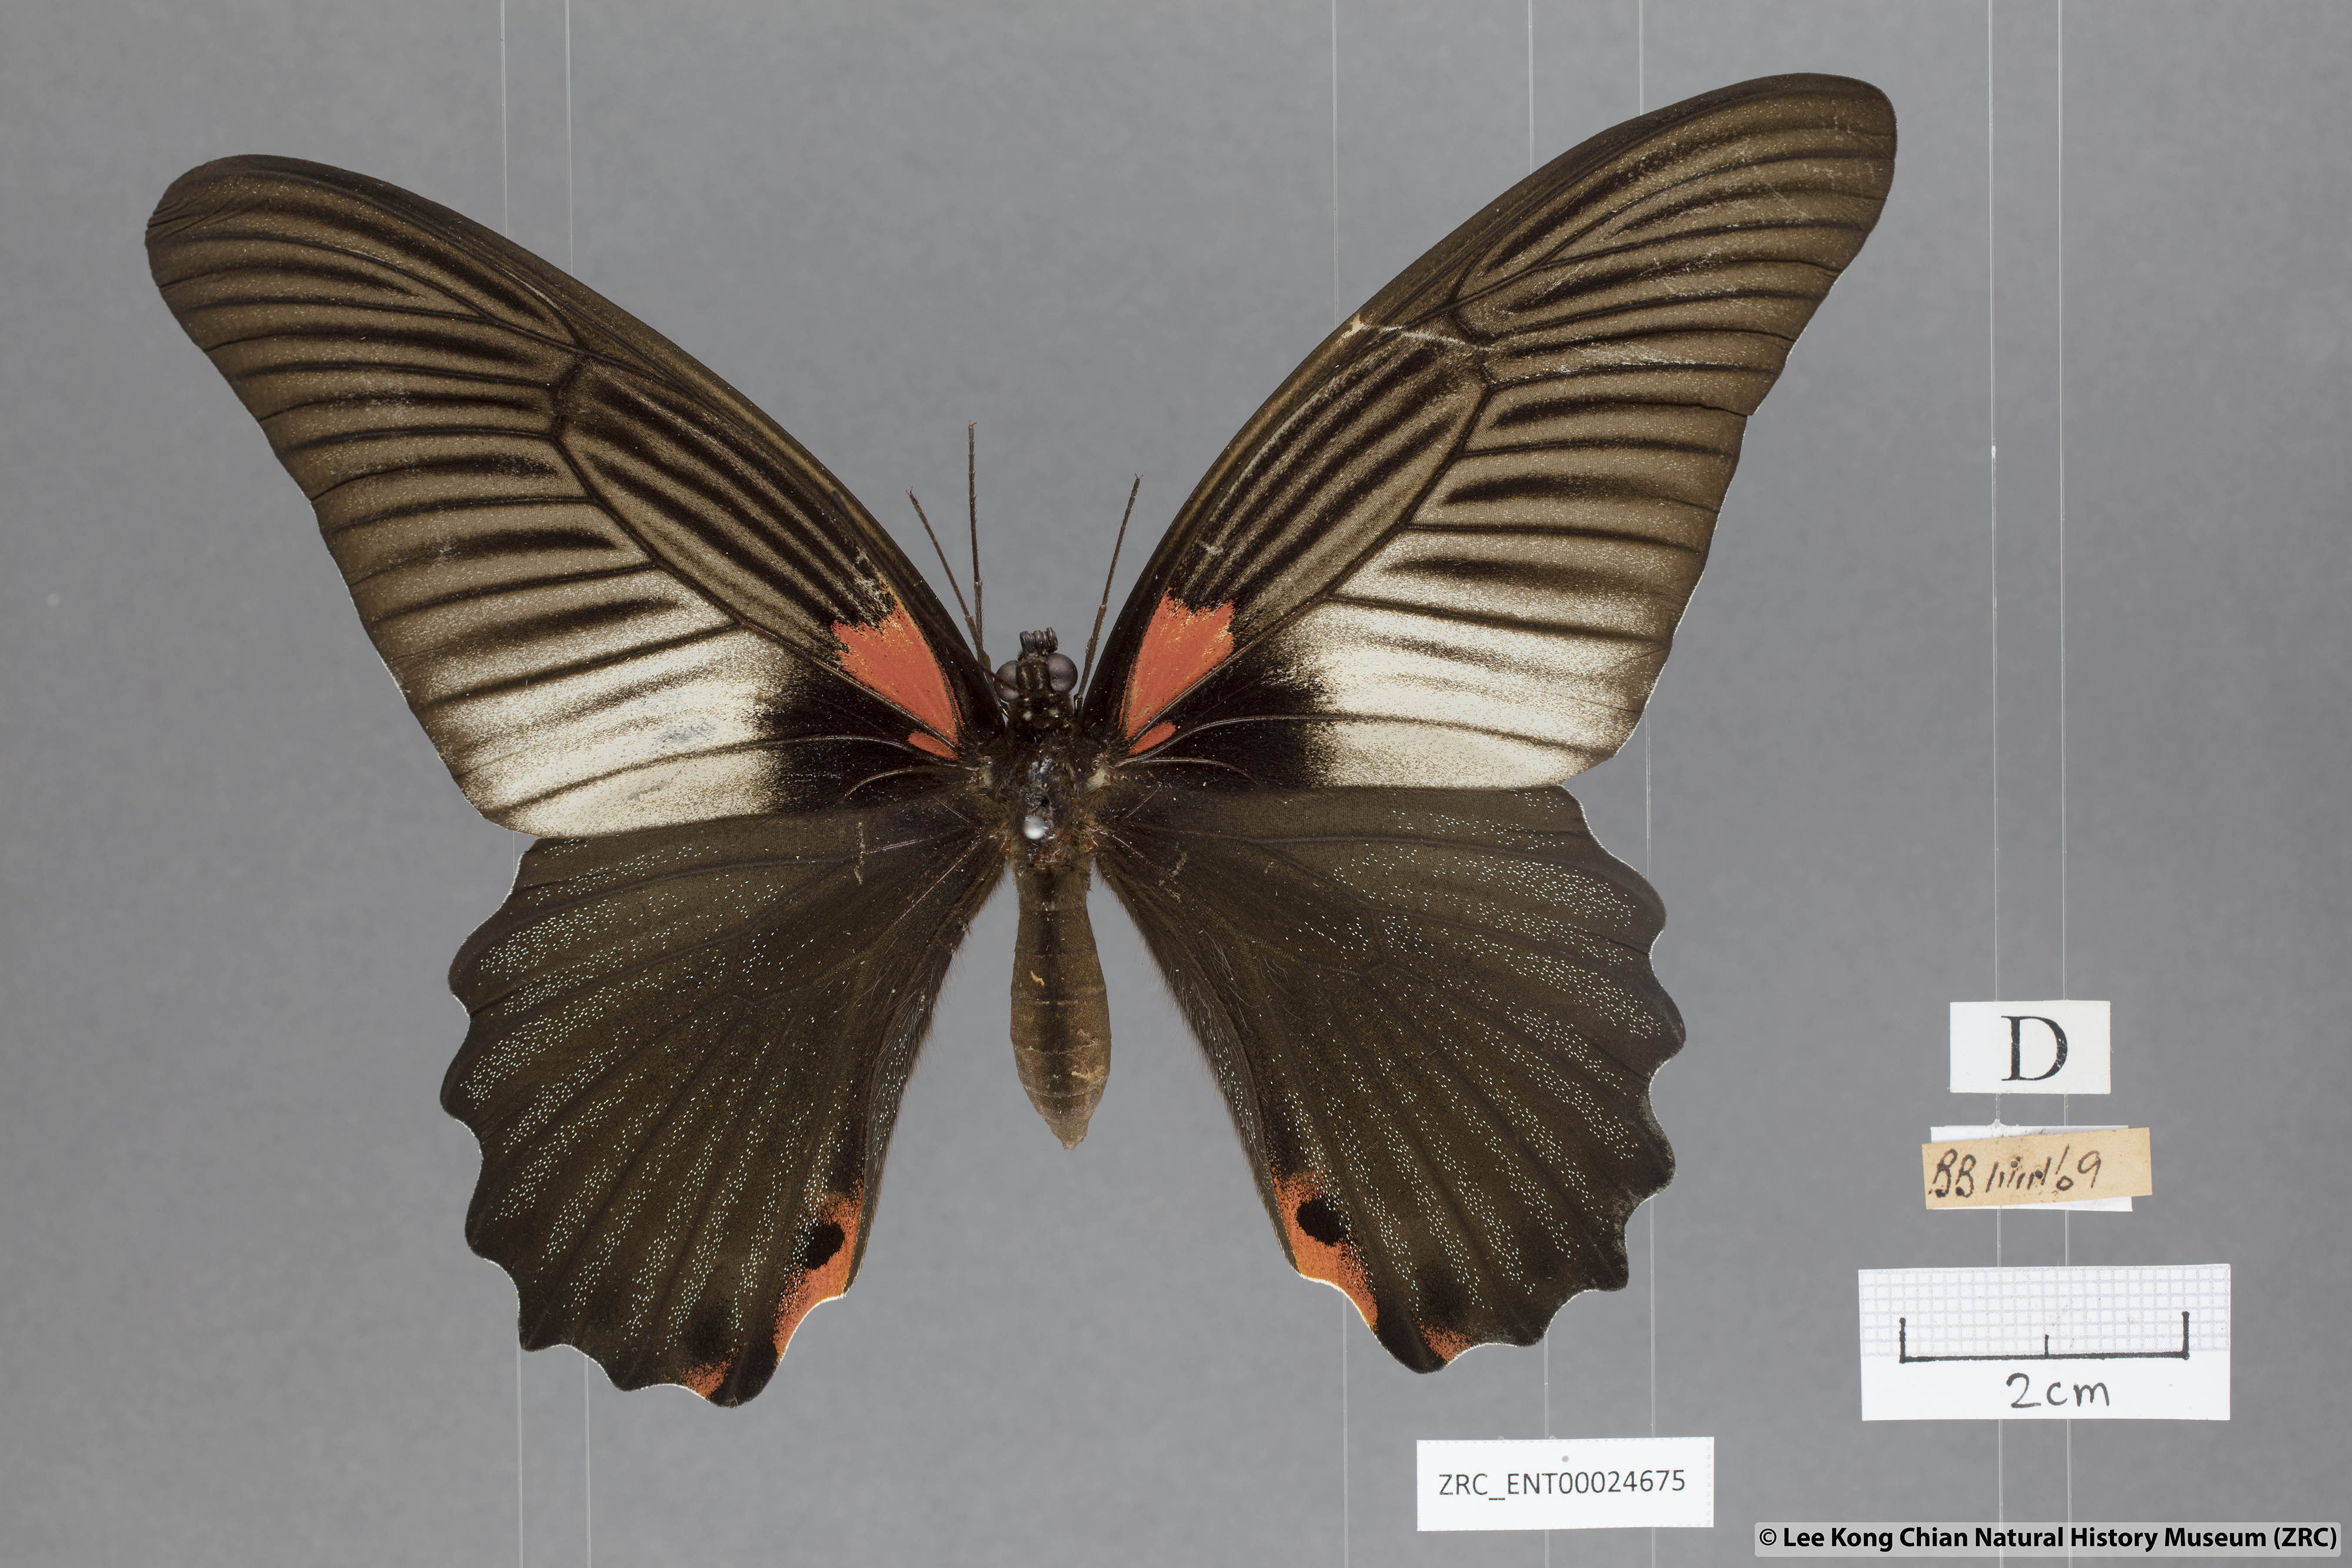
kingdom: Animalia
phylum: Arthropoda
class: Insecta
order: Lepidoptera
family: Papilionidae
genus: Papilio
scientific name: Papilio memnon
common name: Great mormon
